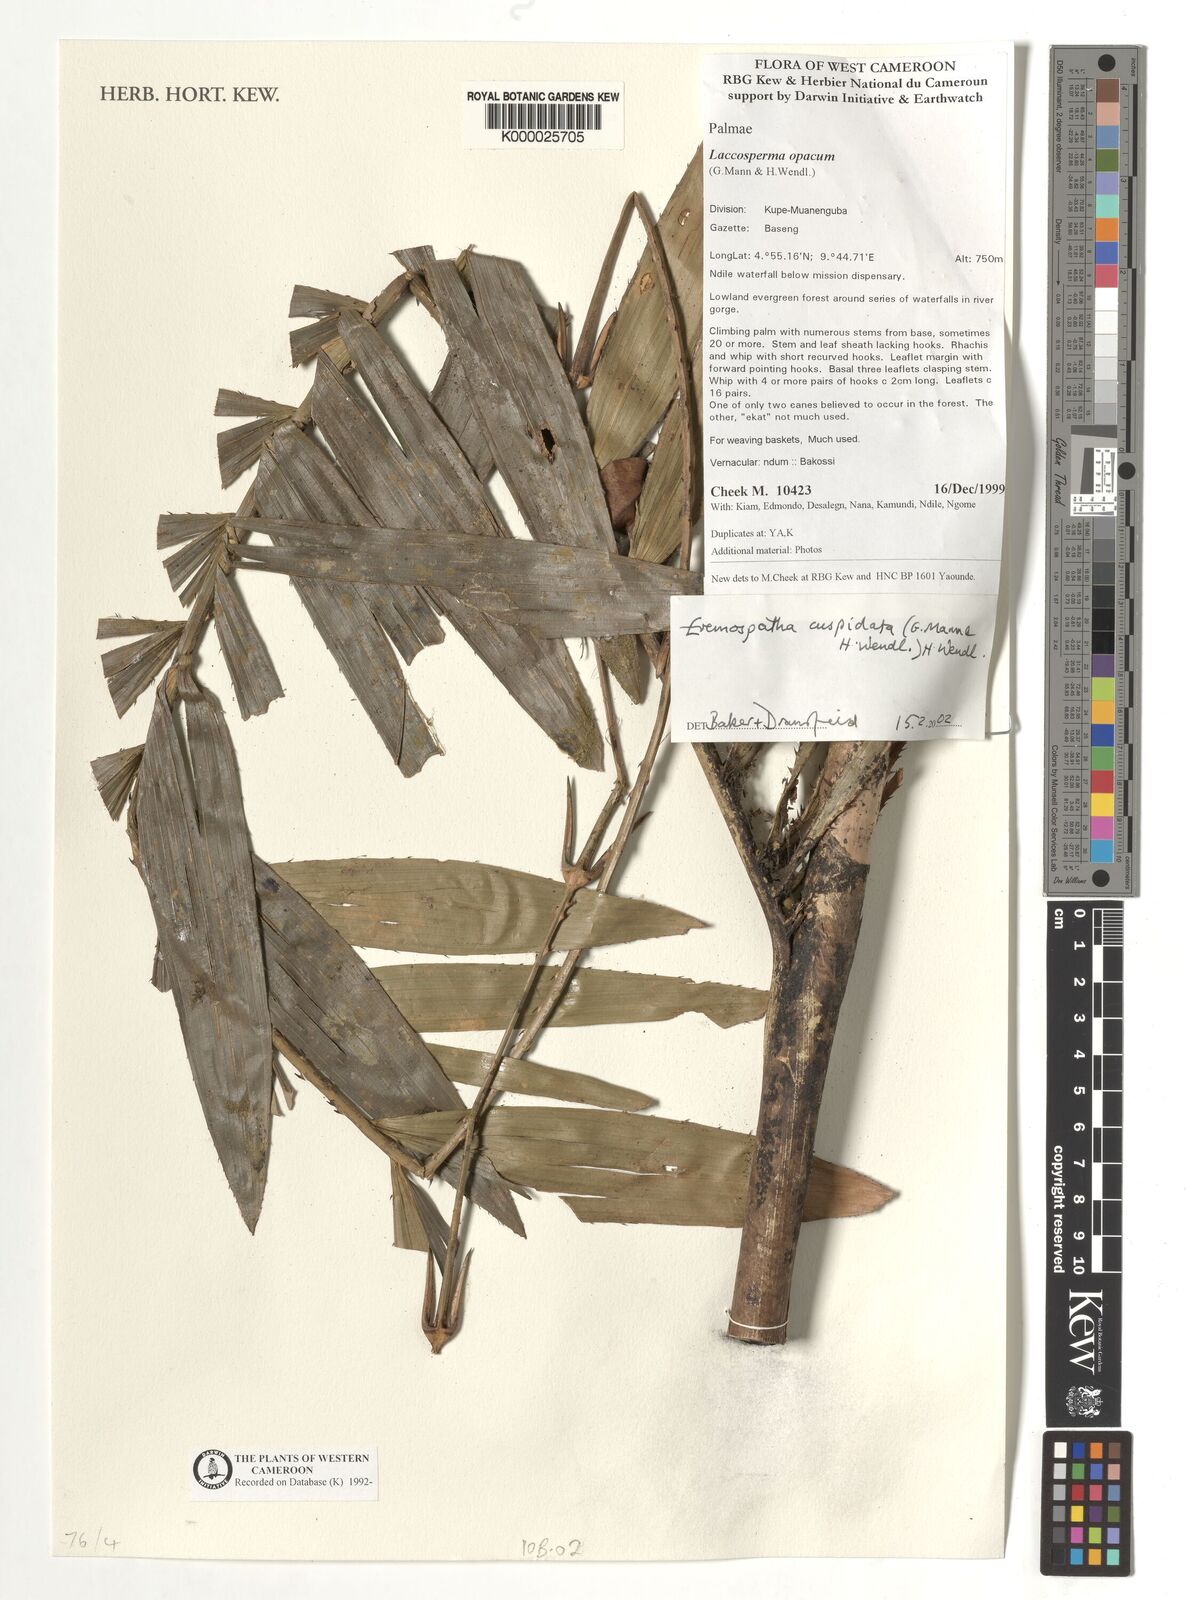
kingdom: Plantae
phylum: Tracheophyta
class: Liliopsida
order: Arecales
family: Arecaceae
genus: Eremospatha
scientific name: Eremospatha cuspidata
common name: Rattan
